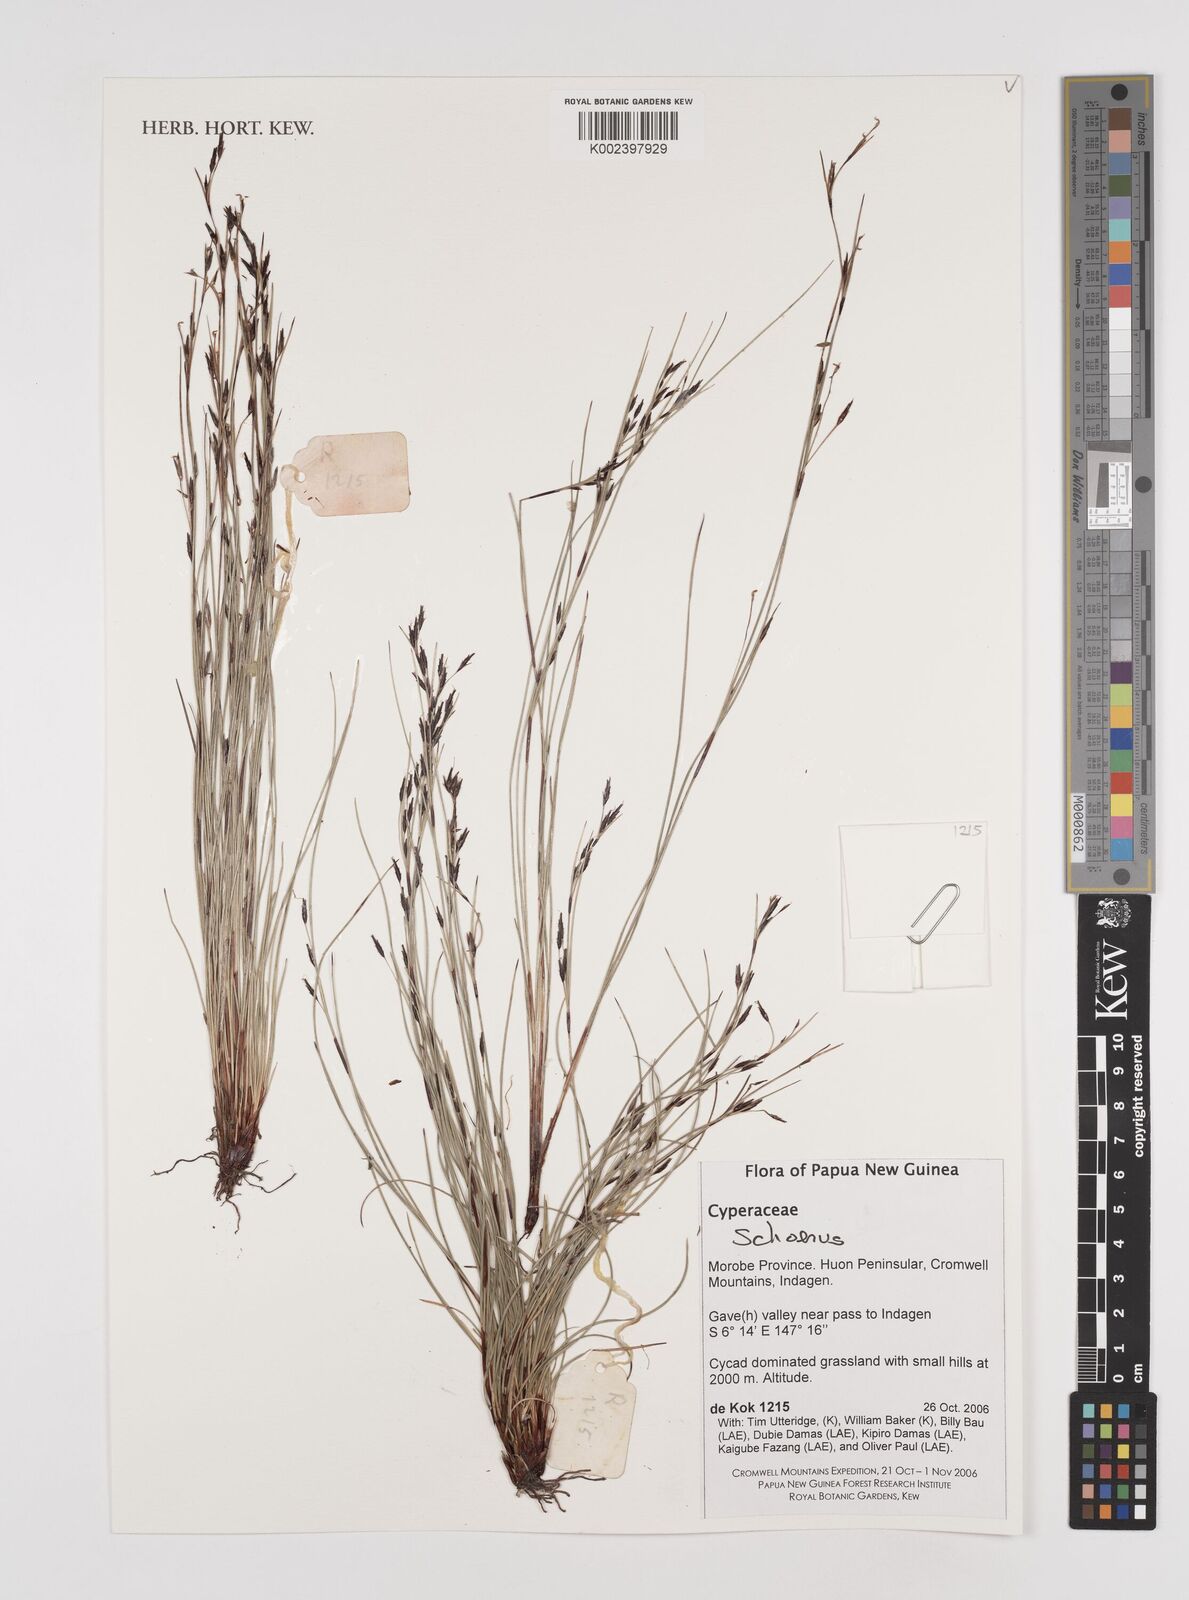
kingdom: Plantae
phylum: Tracheophyta
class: Liliopsida
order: Poales
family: Cyperaceae
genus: Schoenus
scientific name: Schoenus
